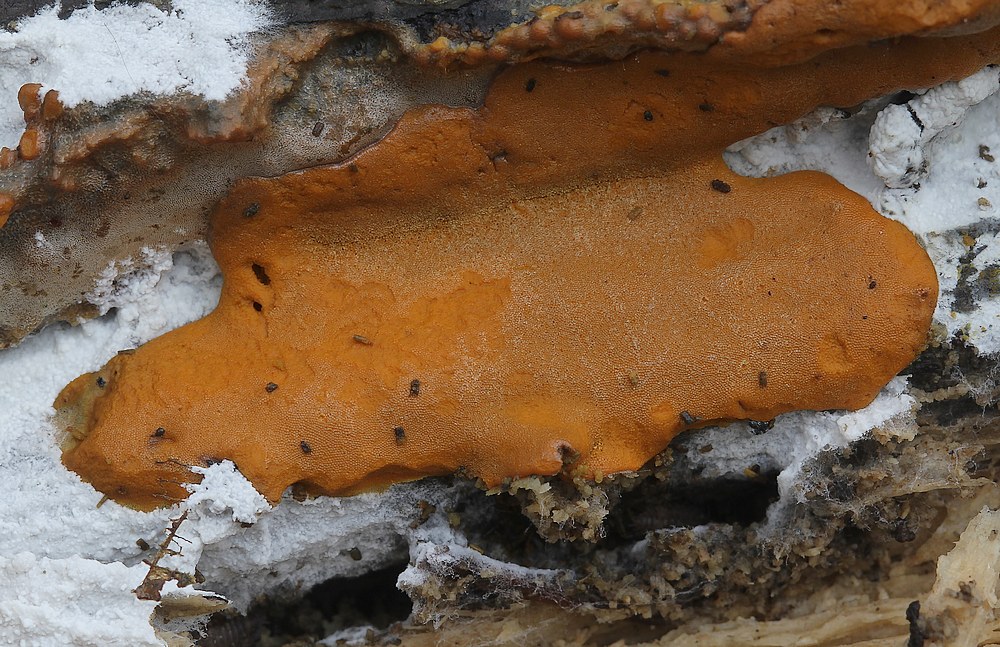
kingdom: Protozoa
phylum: Mycetozoa
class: Myxomycetes
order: Trichiales
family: Dictydiaethaliaceae
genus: Dictydiaethalium
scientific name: Dictydiaethalium plumbeum
